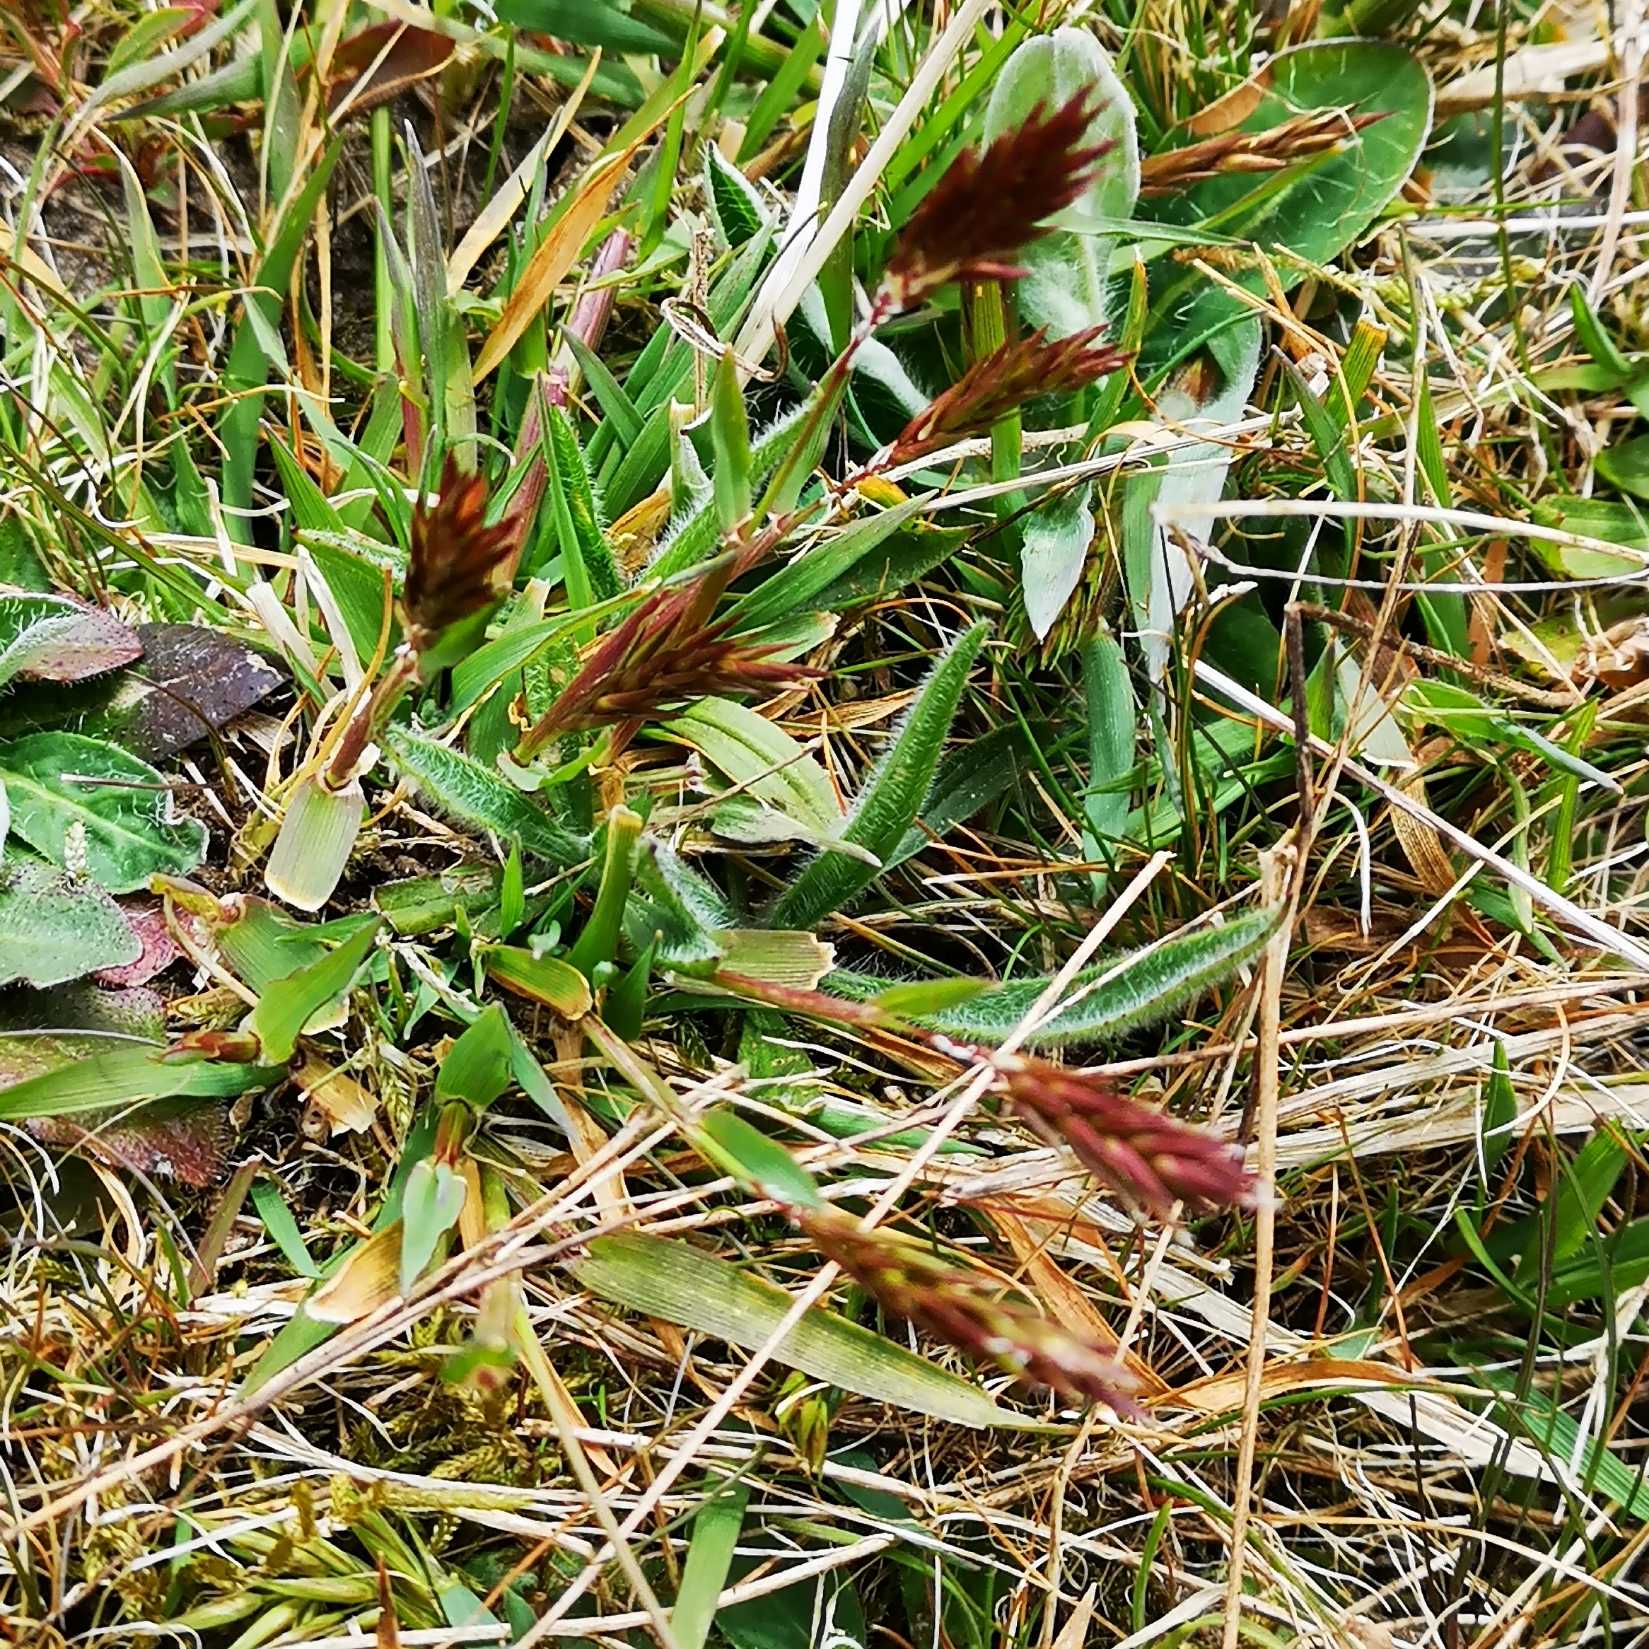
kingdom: Plantae
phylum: Tracheophyta
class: Liliopsida
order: Poales
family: Poaceae
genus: Anthoxanthum
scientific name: Anthoxanthum odoratum
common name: Vellugtende gulaks
